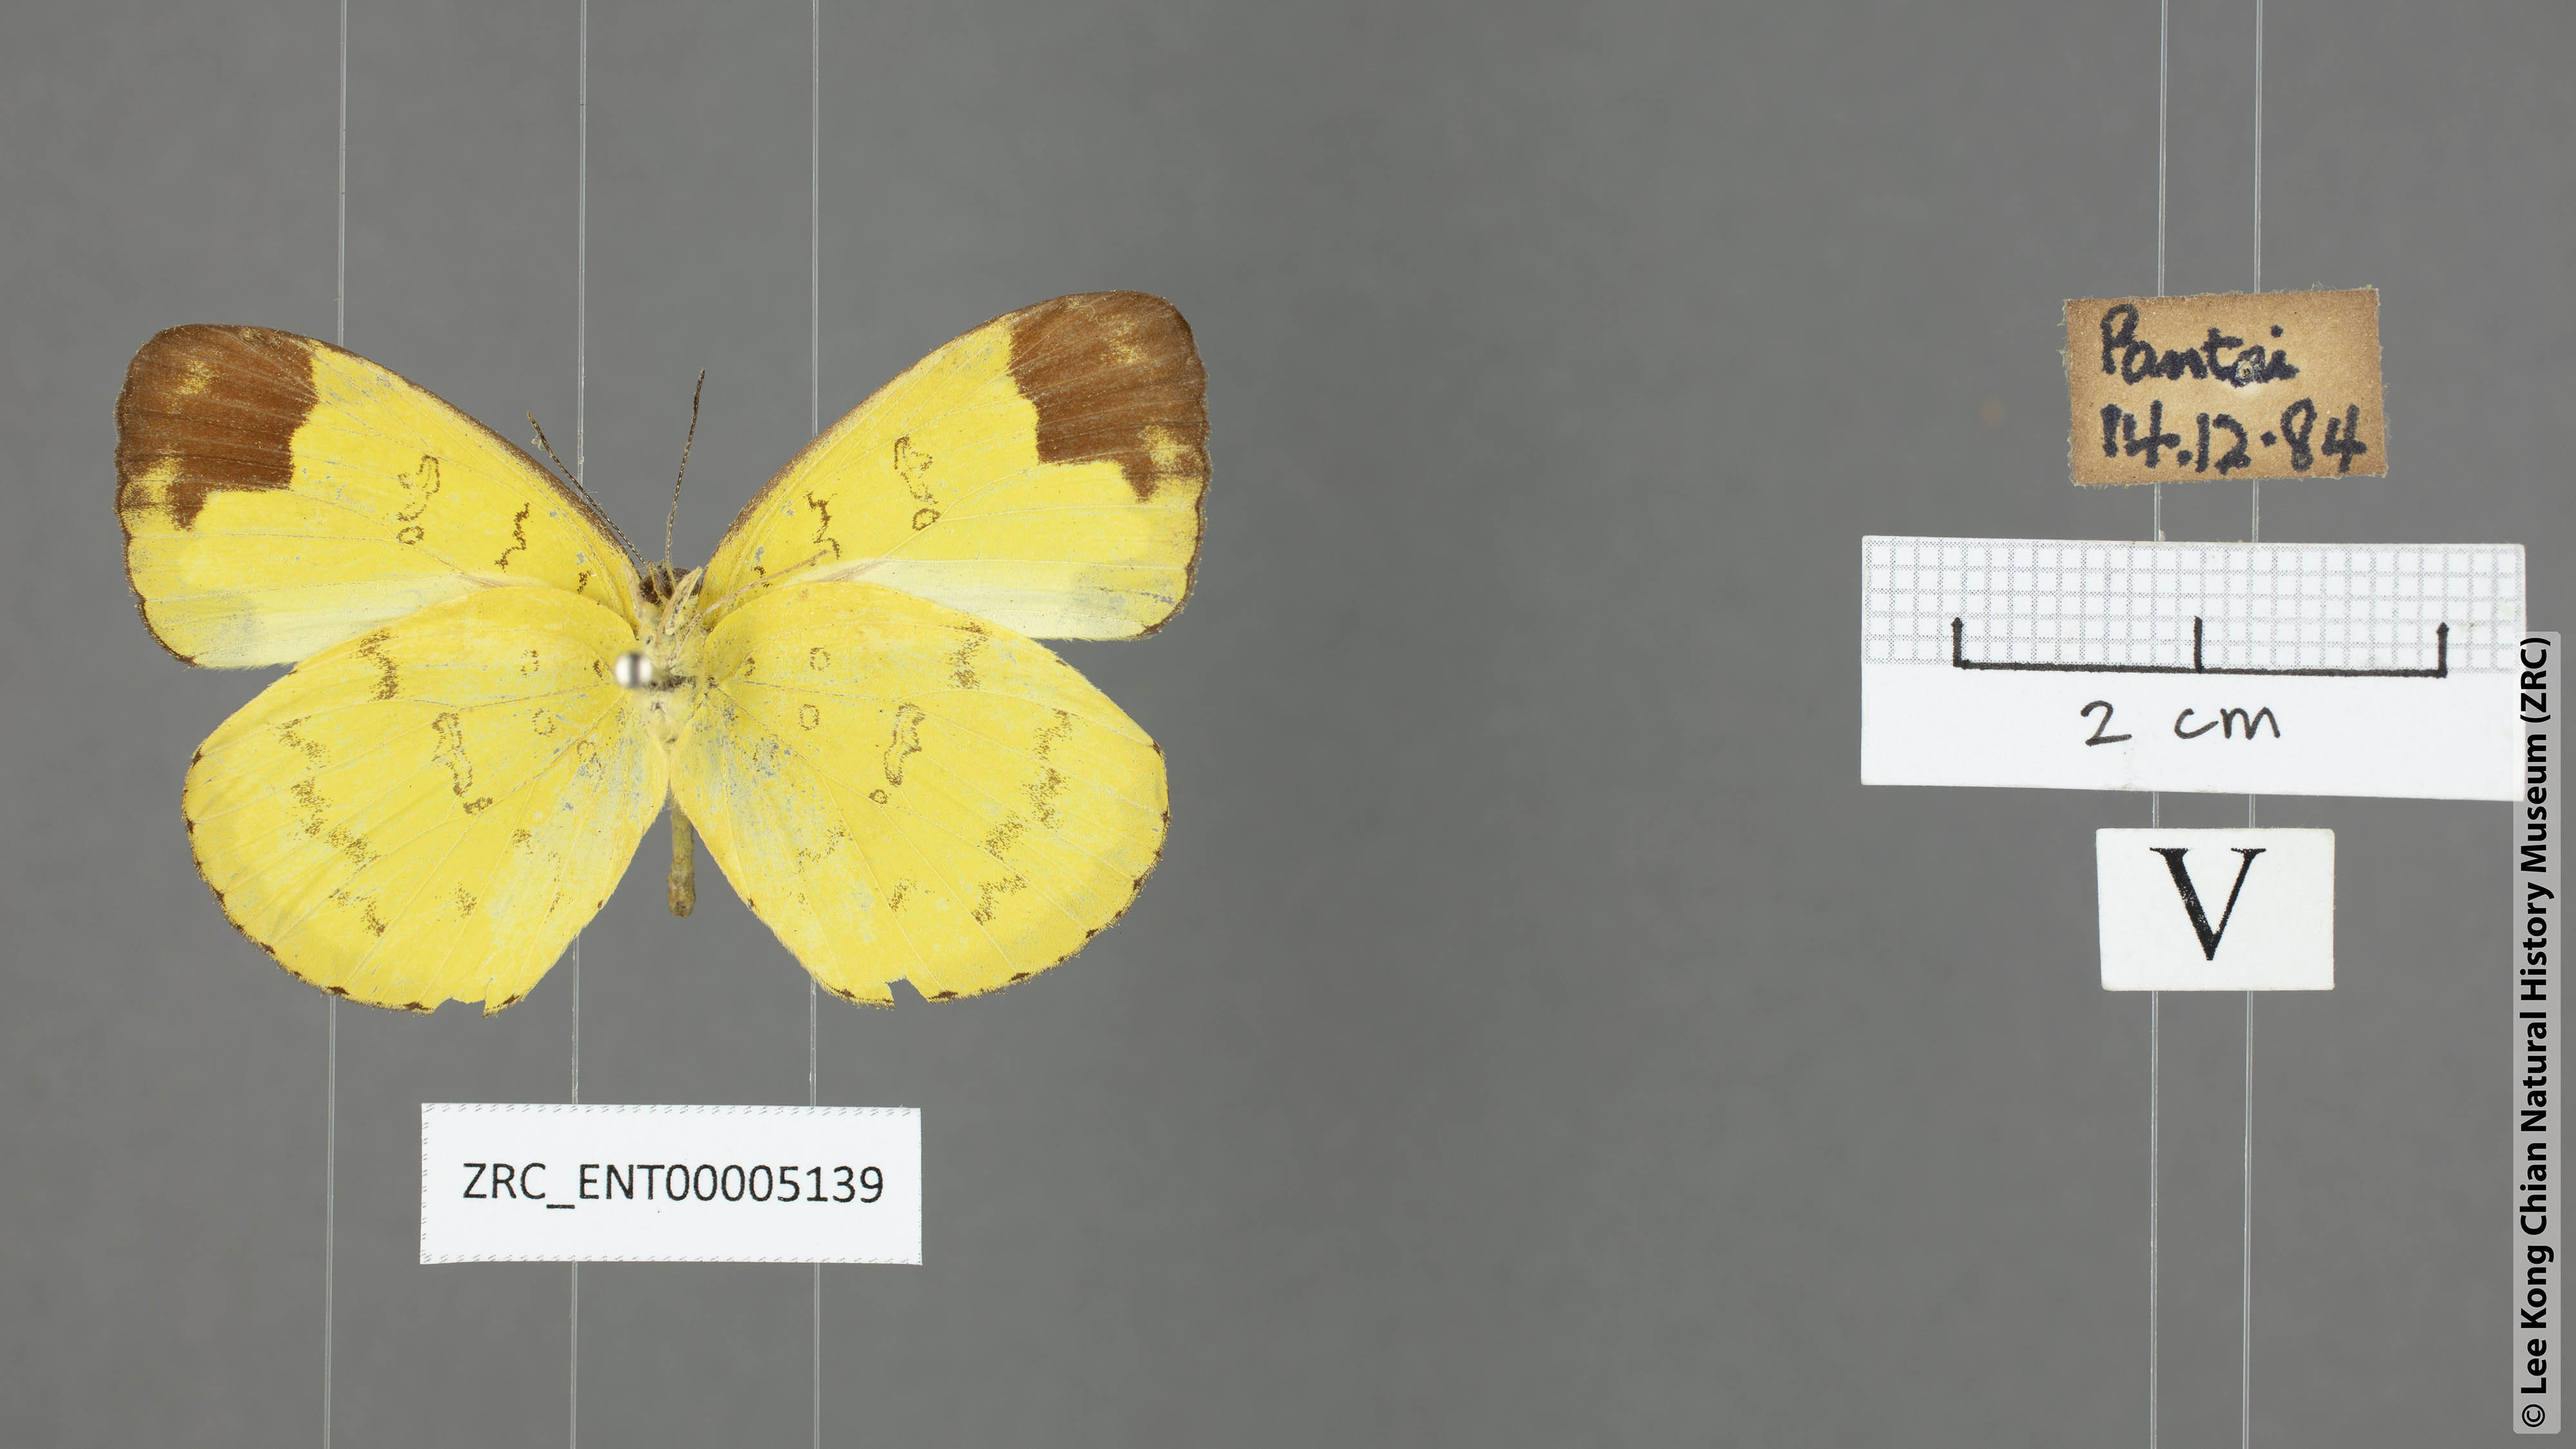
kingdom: Animalia
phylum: Arthropoda
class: Insecta
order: Lepidoptera
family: Pieridae
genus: Eurema
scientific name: Eurema simulatrix
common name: Hill grass yellow
